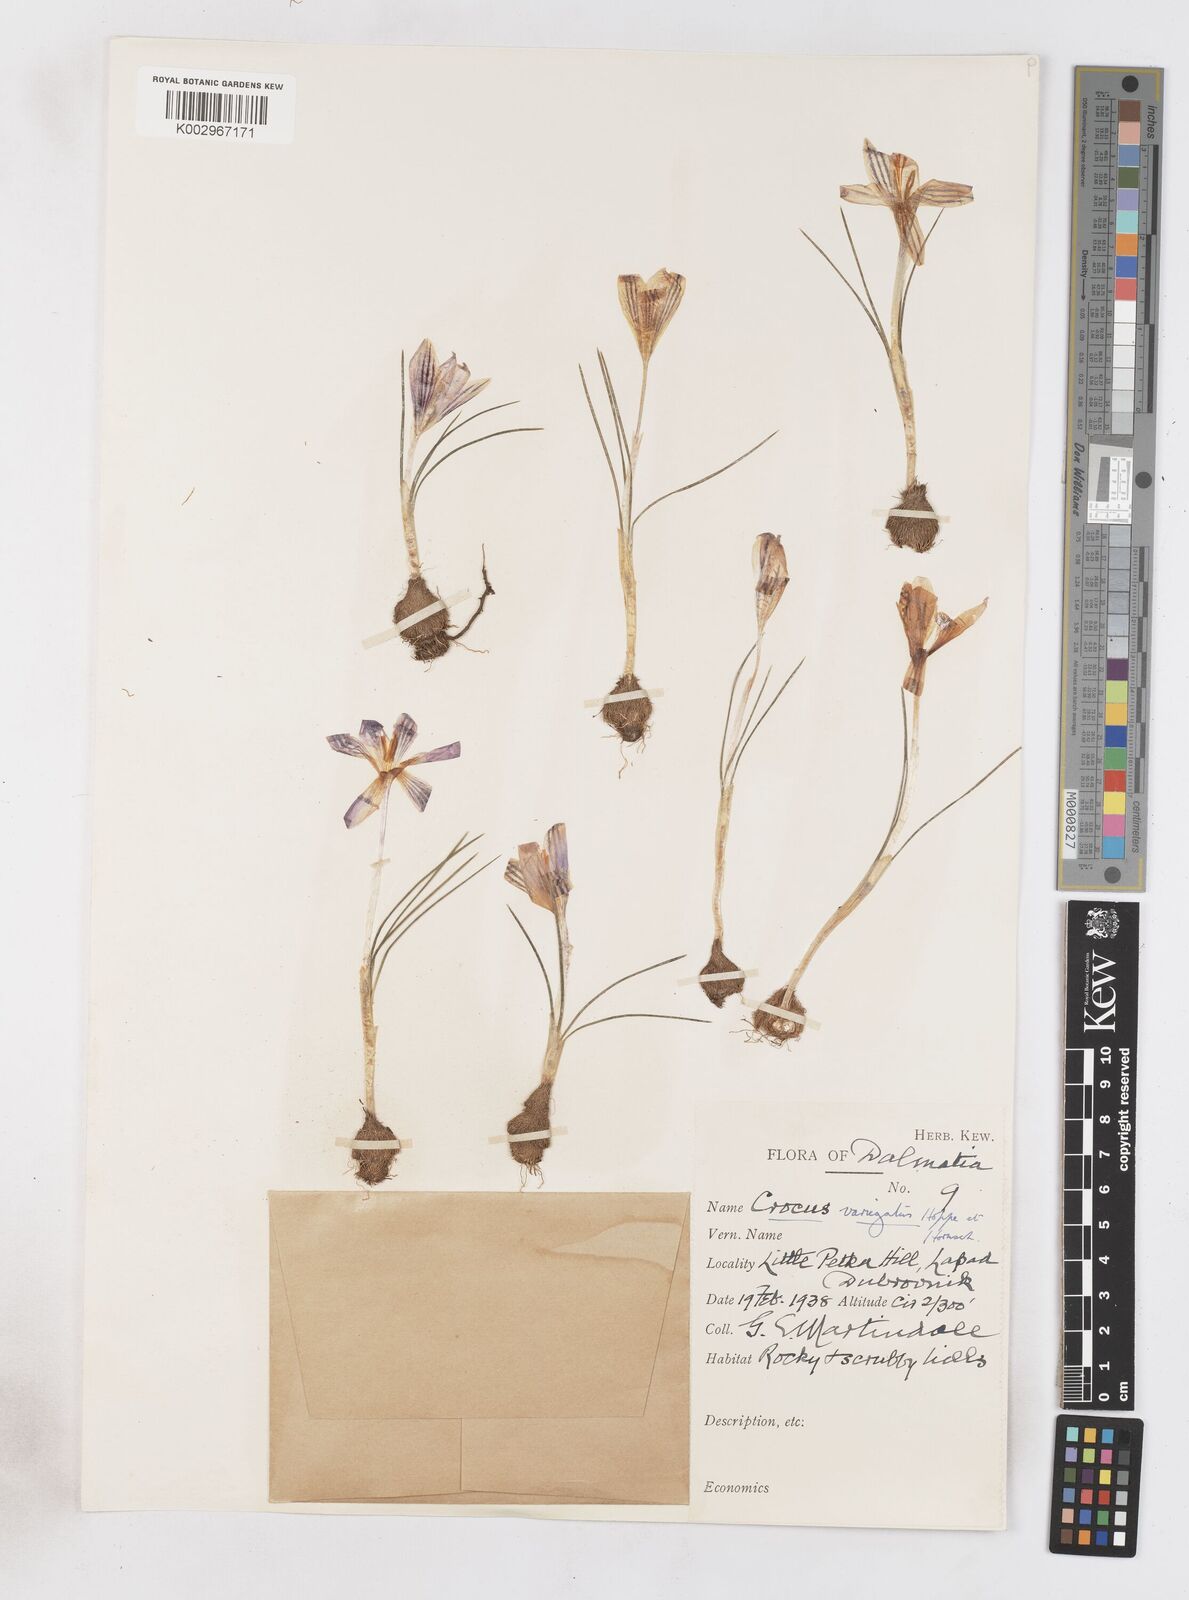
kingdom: Plantae
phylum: Tracheophyta
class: Liliopsida
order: Asparagales
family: Iridaceae
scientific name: Iridaceae
